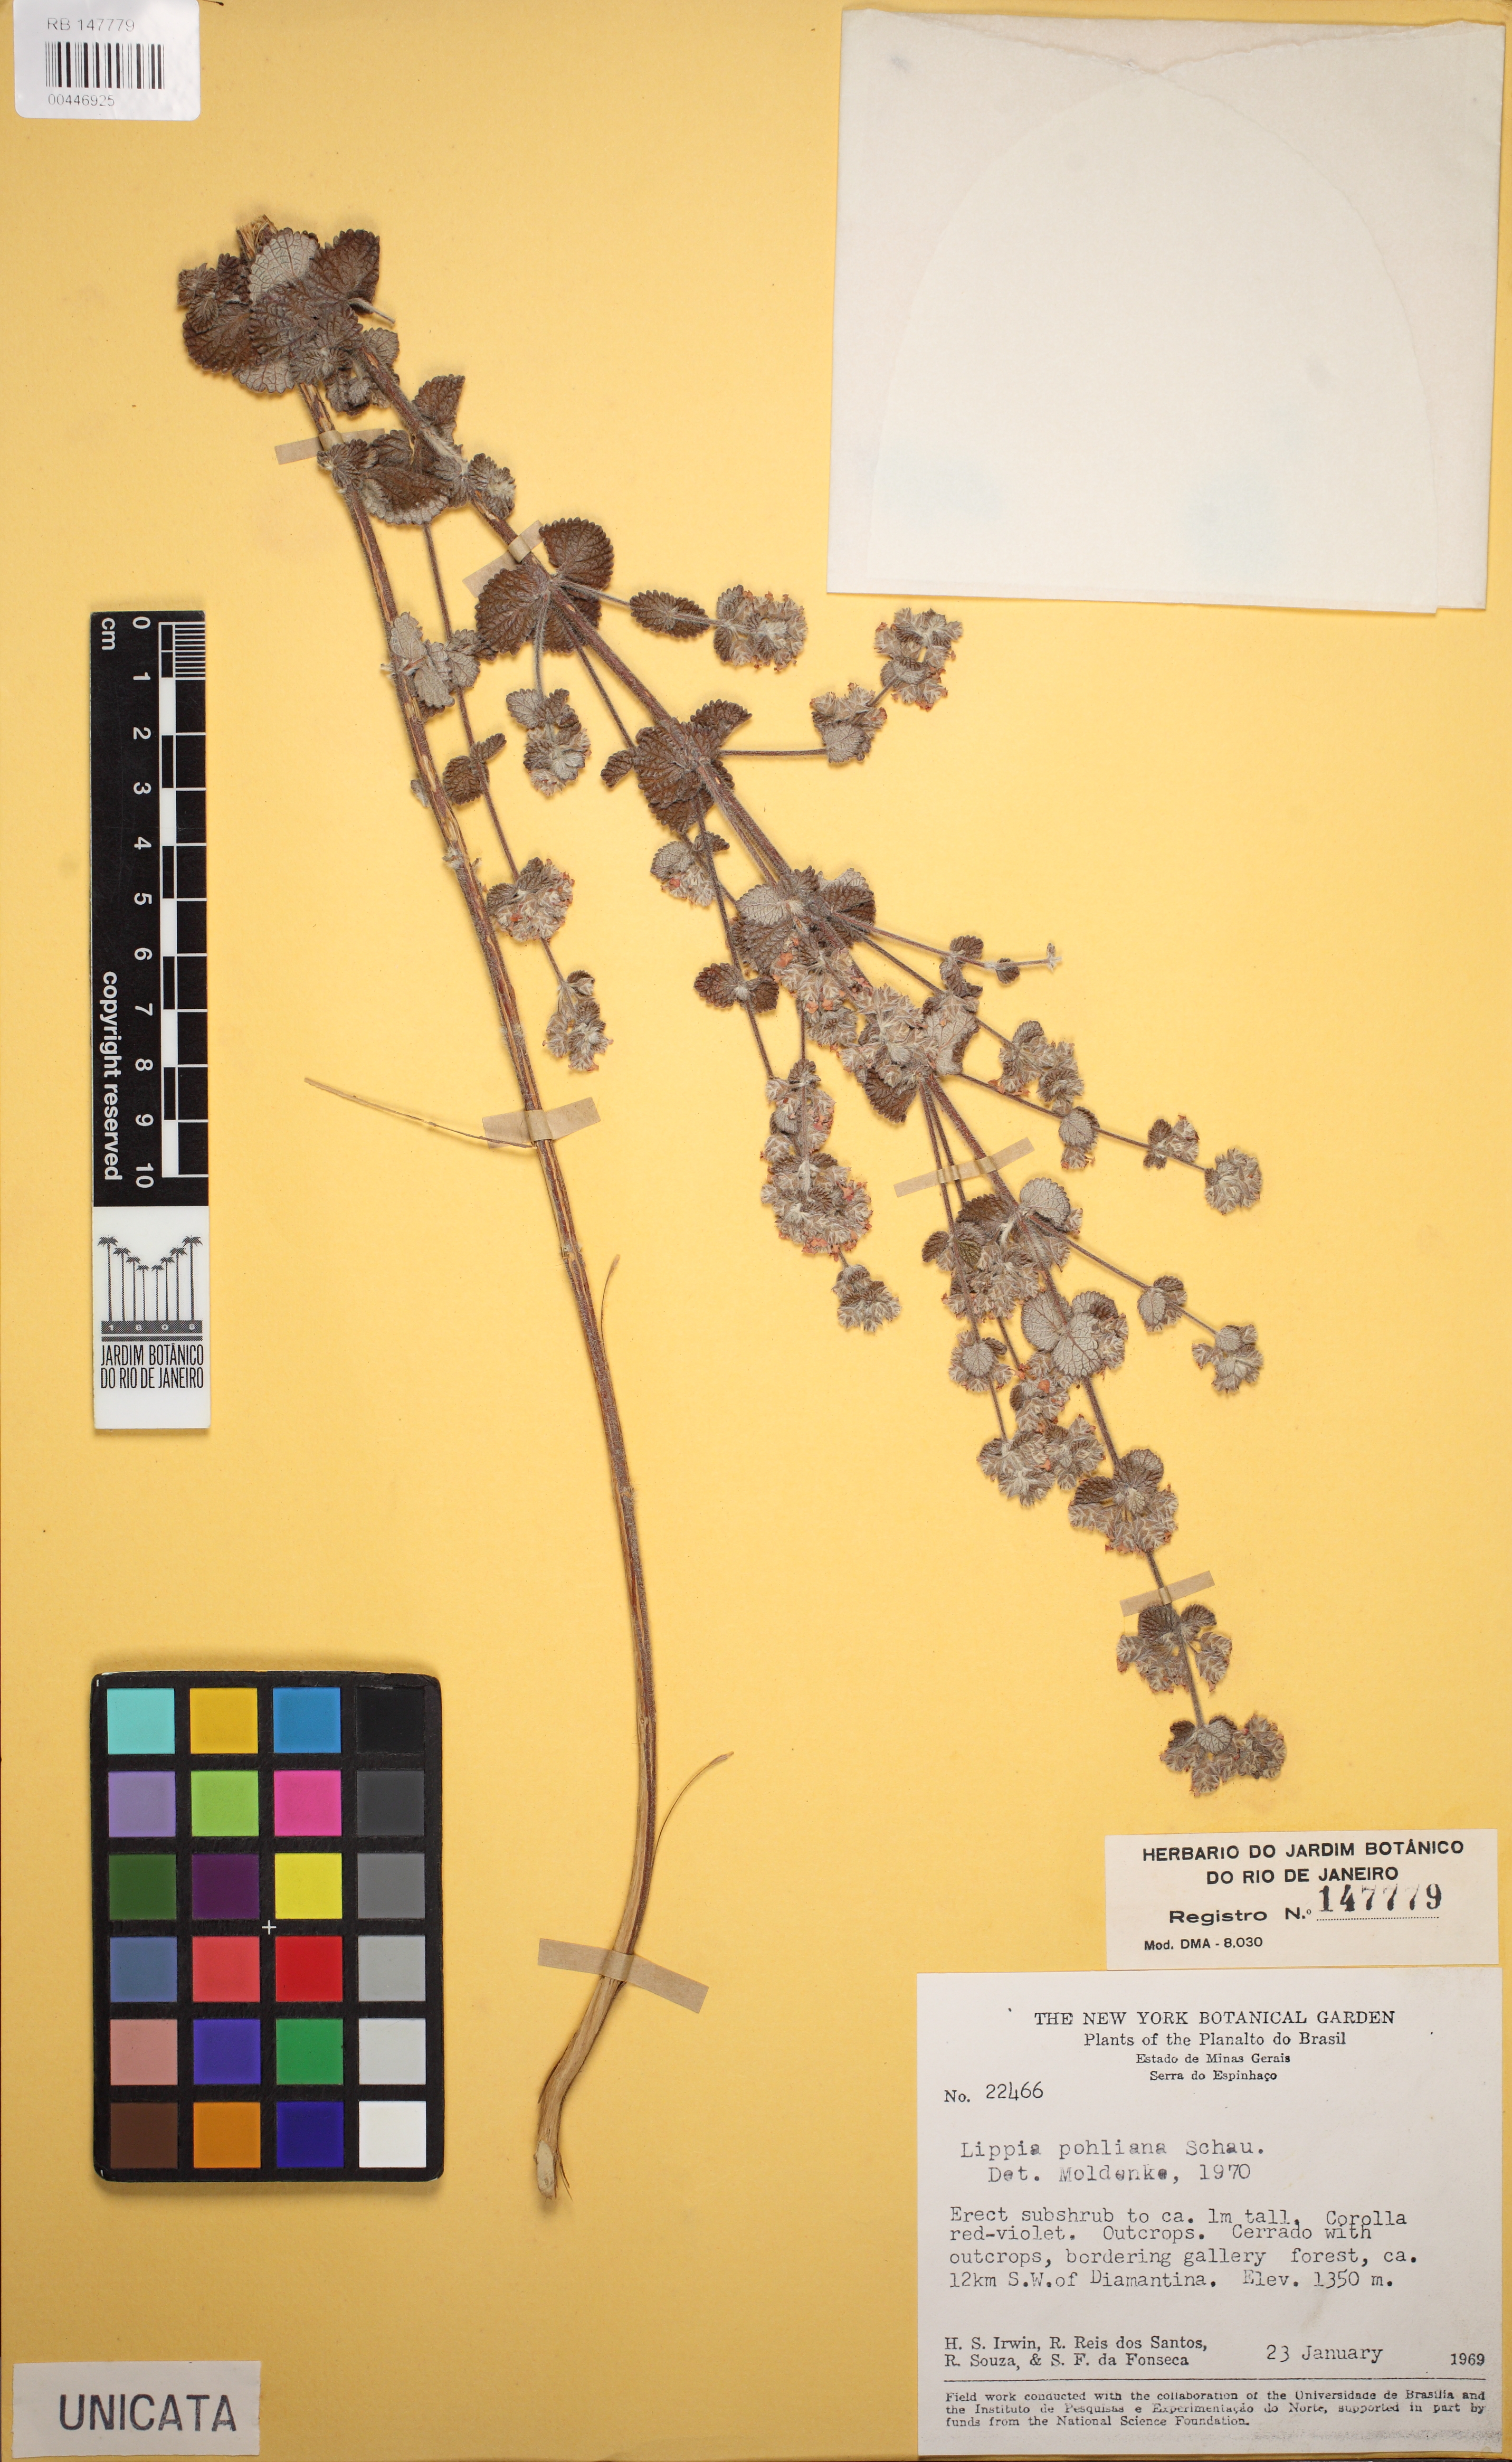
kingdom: Plantae
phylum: Tracheophyta
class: Magnoliopsida
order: Lamiales
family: Verbenaceae
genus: Lippia
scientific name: Lippia martiana
